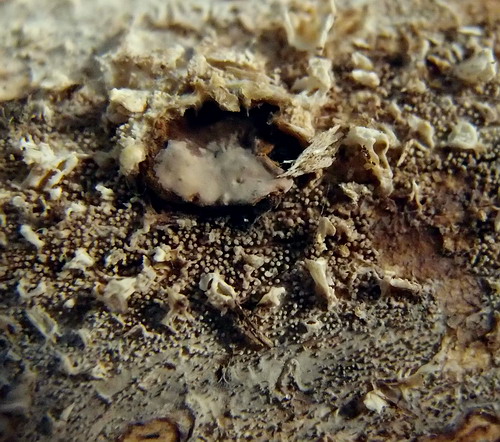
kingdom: Fungi
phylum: Basidiomycota
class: Agaricomycetes
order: Hymenochaetales
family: Rickenellaceae
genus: Resinicium
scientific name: Resinicium bicolor
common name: almindelig vokstand
